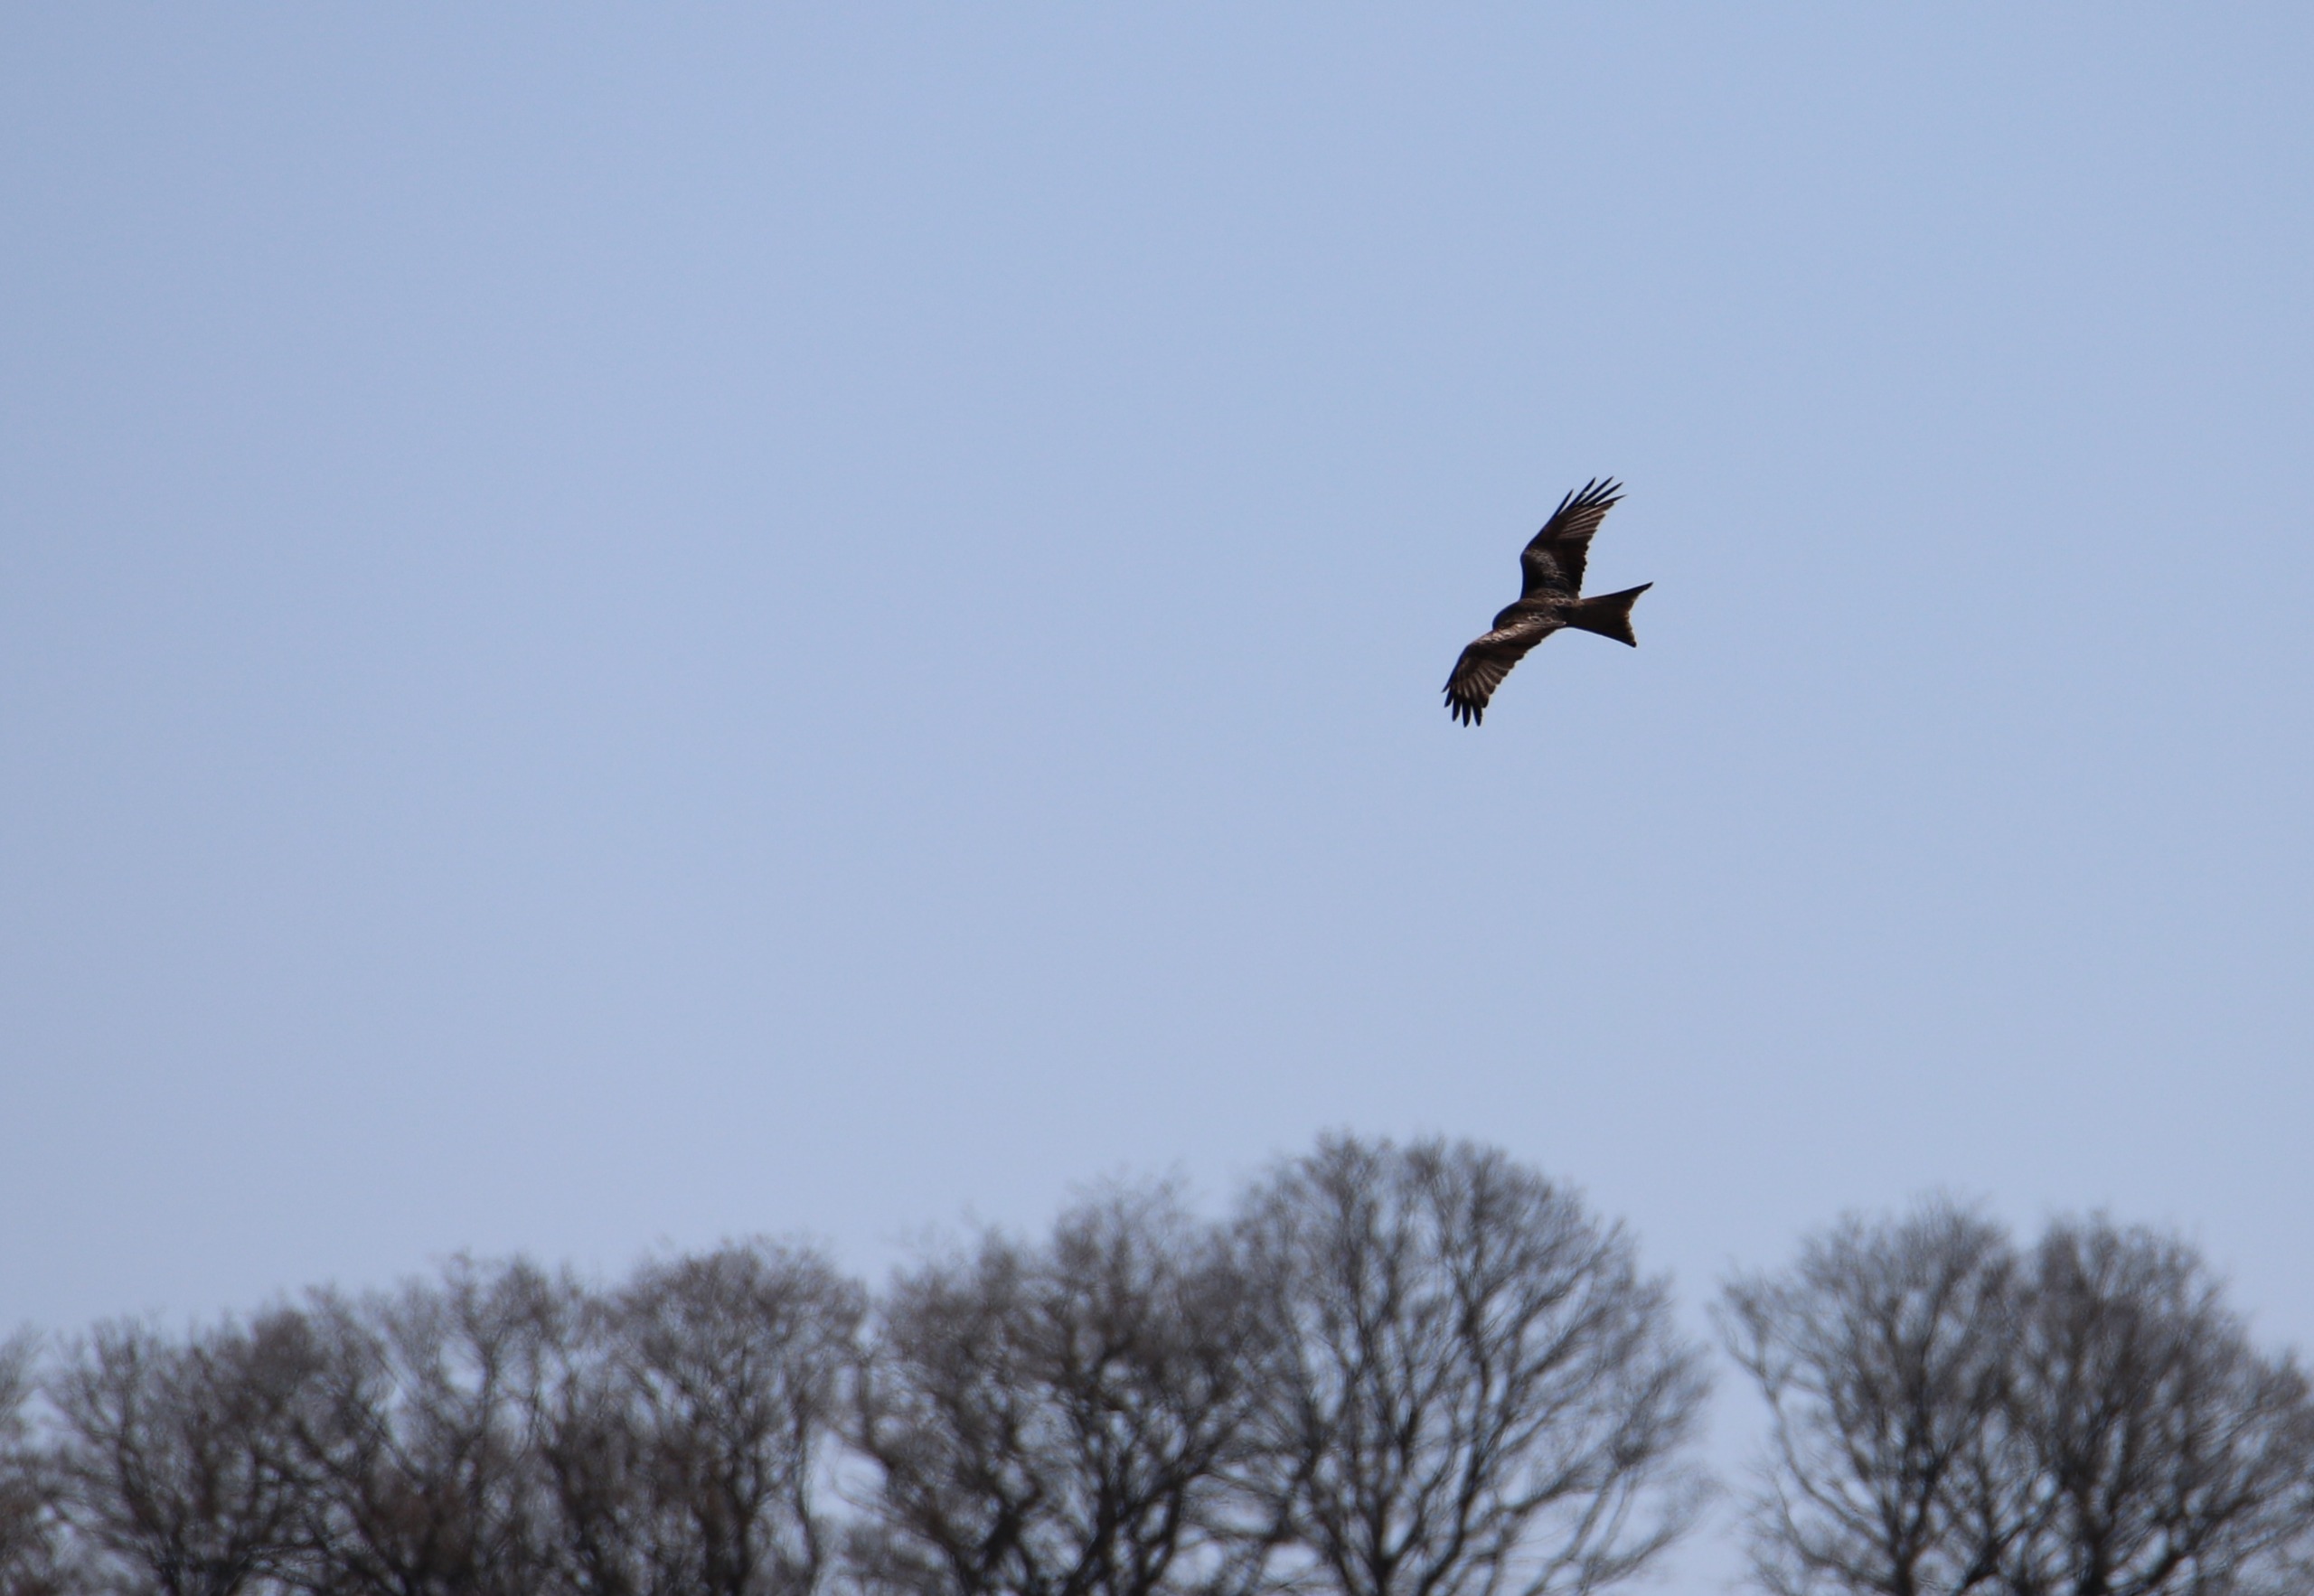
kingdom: Animalia
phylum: Chordata
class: Aves
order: Accipitriformes
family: Accipitridae
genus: Milvus
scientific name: Milvus milvus
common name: Rød glente
